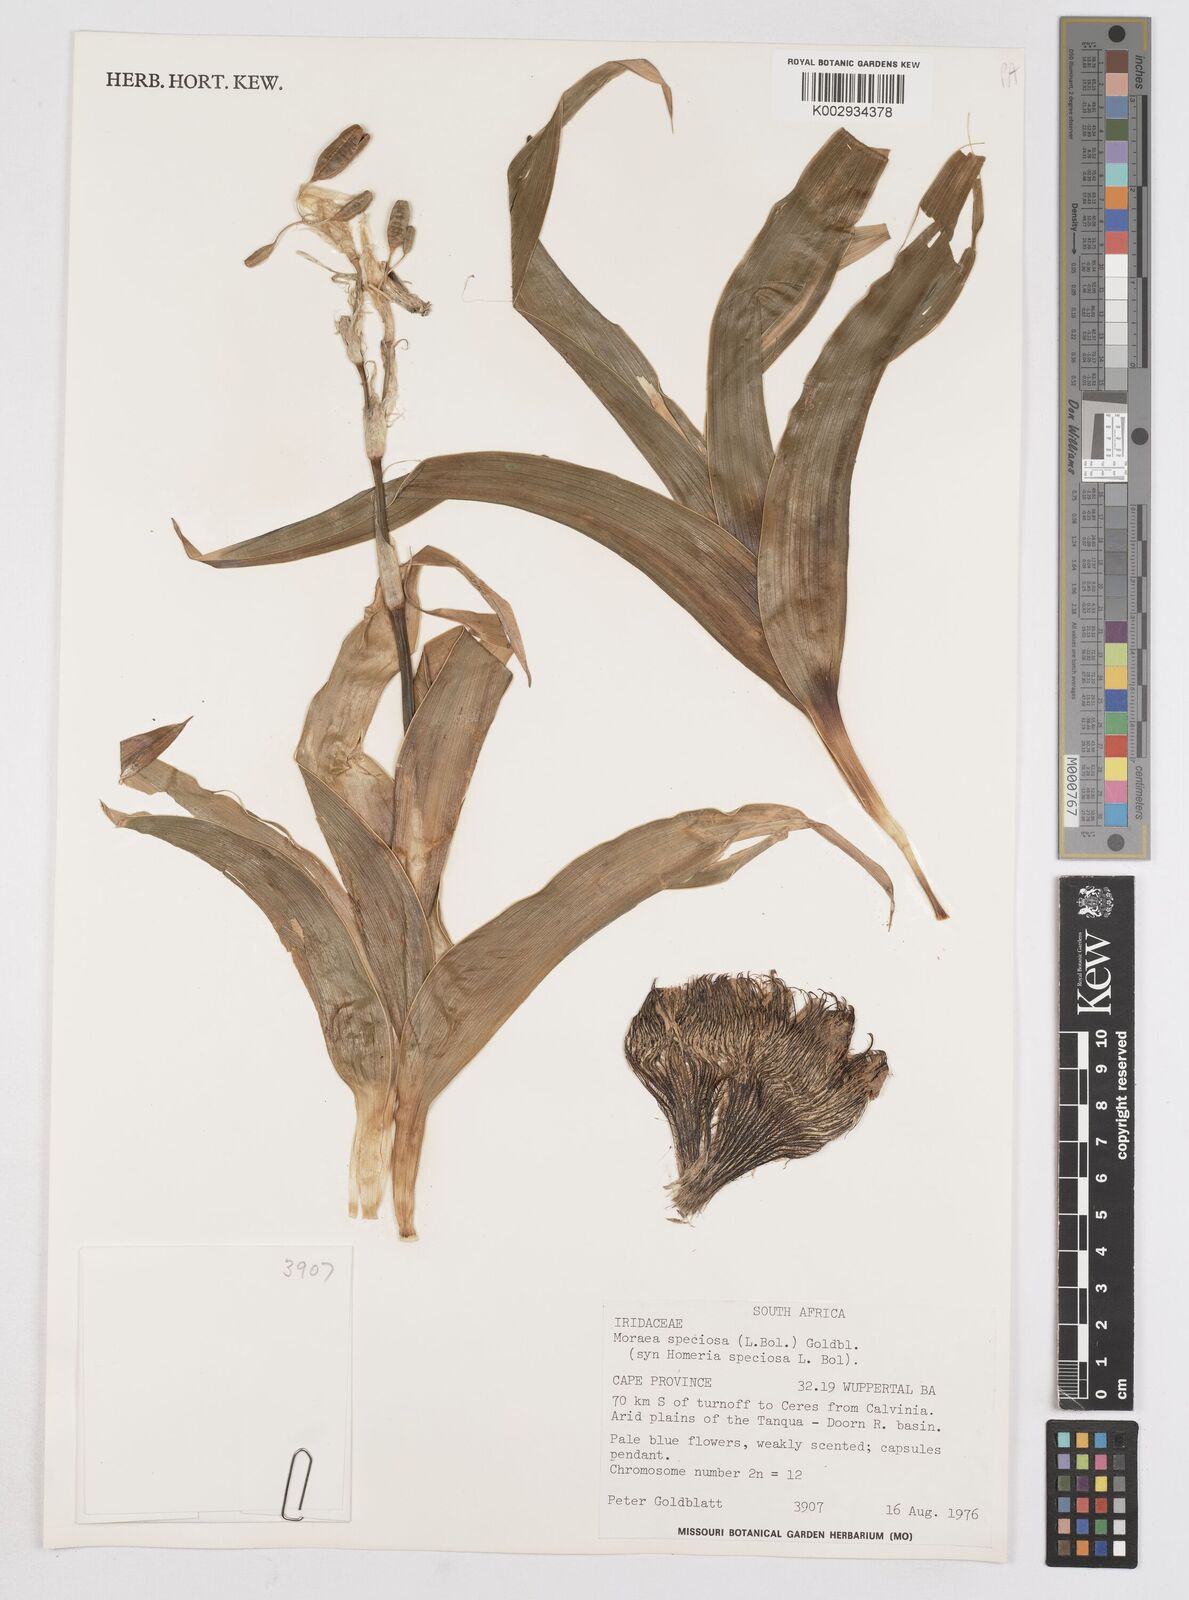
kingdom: Plantae
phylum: Tracheophyta
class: Liliopsida
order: Asparagales
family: Iridaceae
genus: Moraea
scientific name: Moraea speciosa
